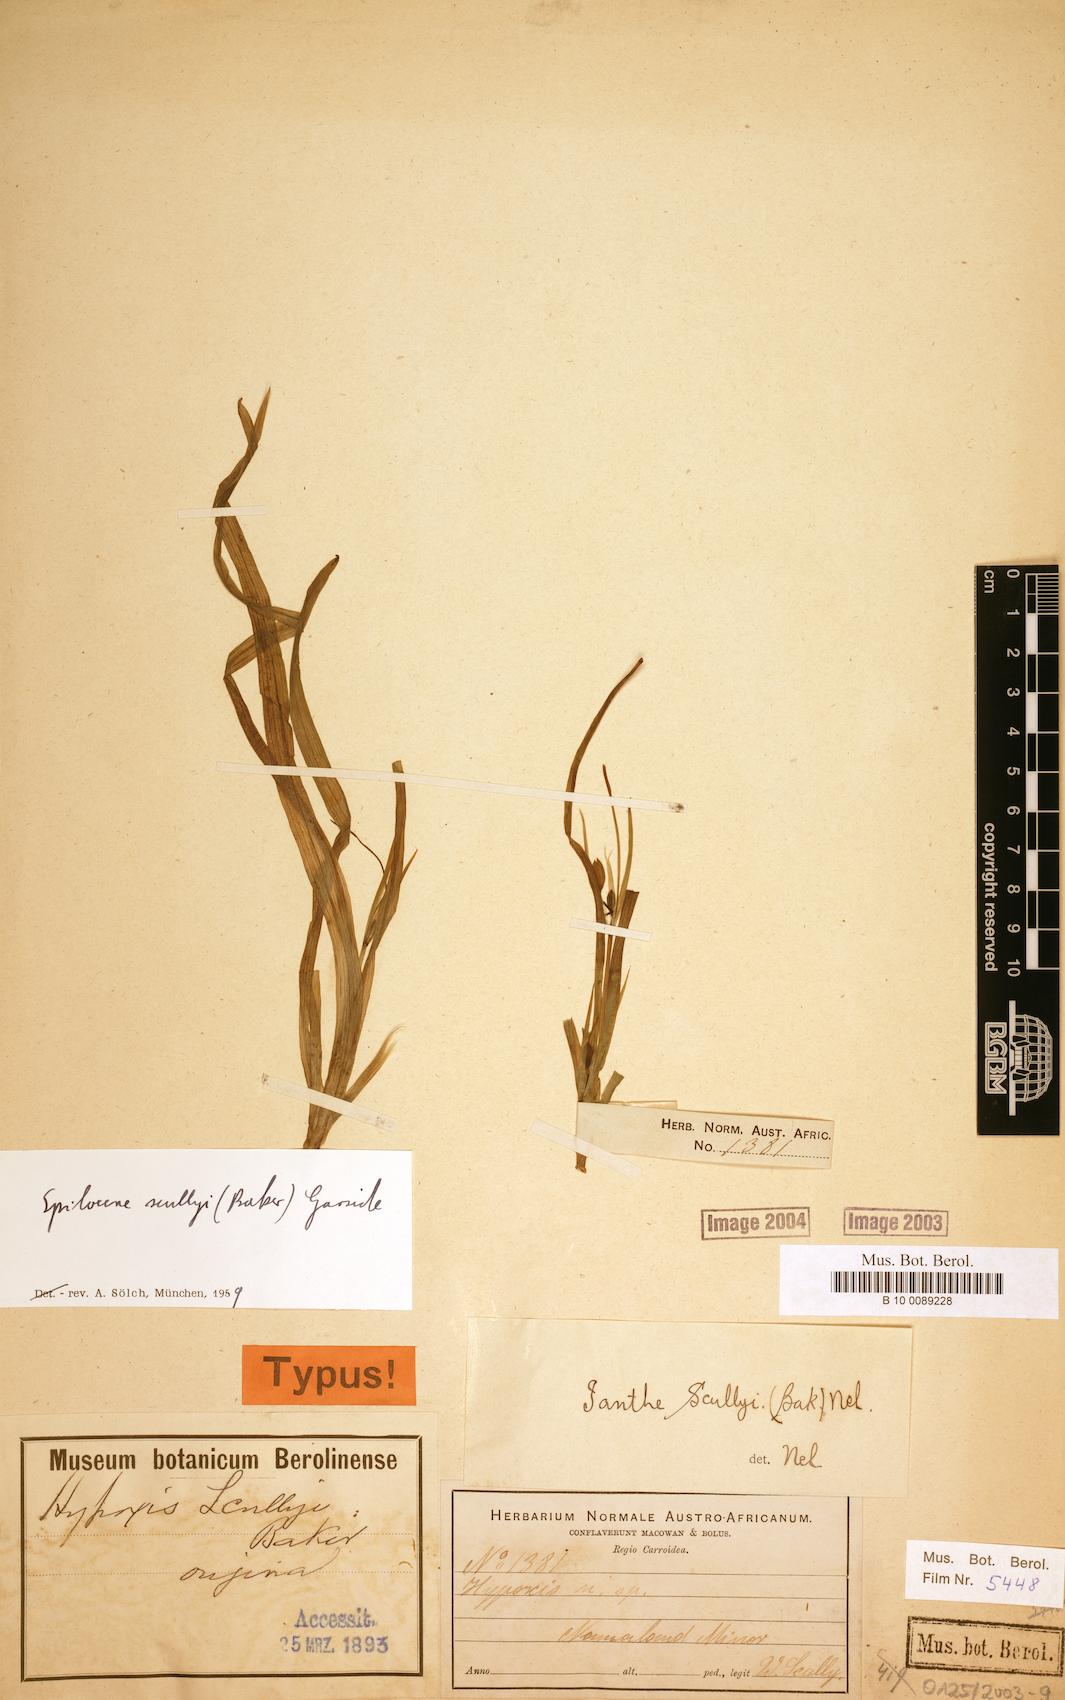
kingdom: Plantae
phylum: Tracheophyta
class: Liliopsida
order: Asparagales
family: Hypoxidaceae
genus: Pauridia
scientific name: Pauridia scullyi
